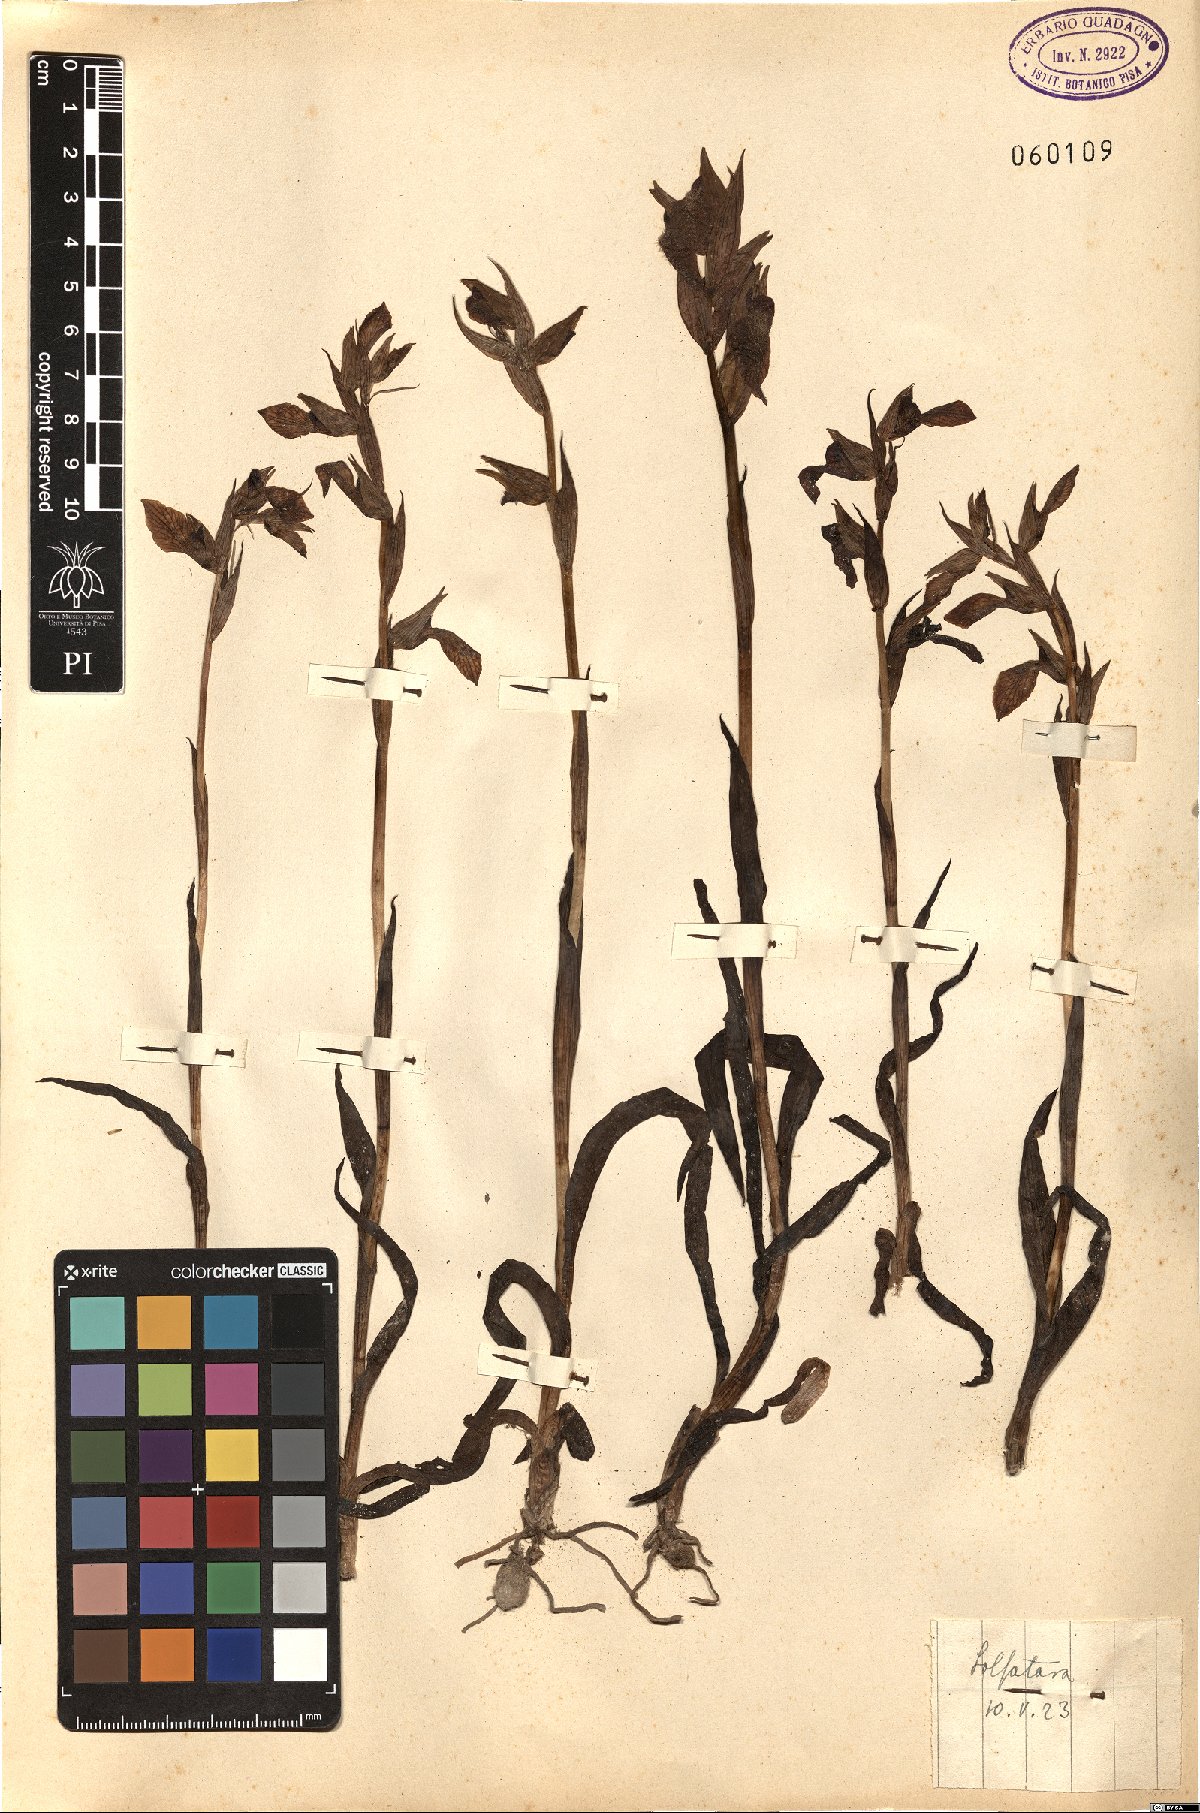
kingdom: Plantae
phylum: Tracheophyta
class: Liliopsida
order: Asparagales
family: Orchidaceae
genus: Serapias
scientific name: Serapias cordigera
